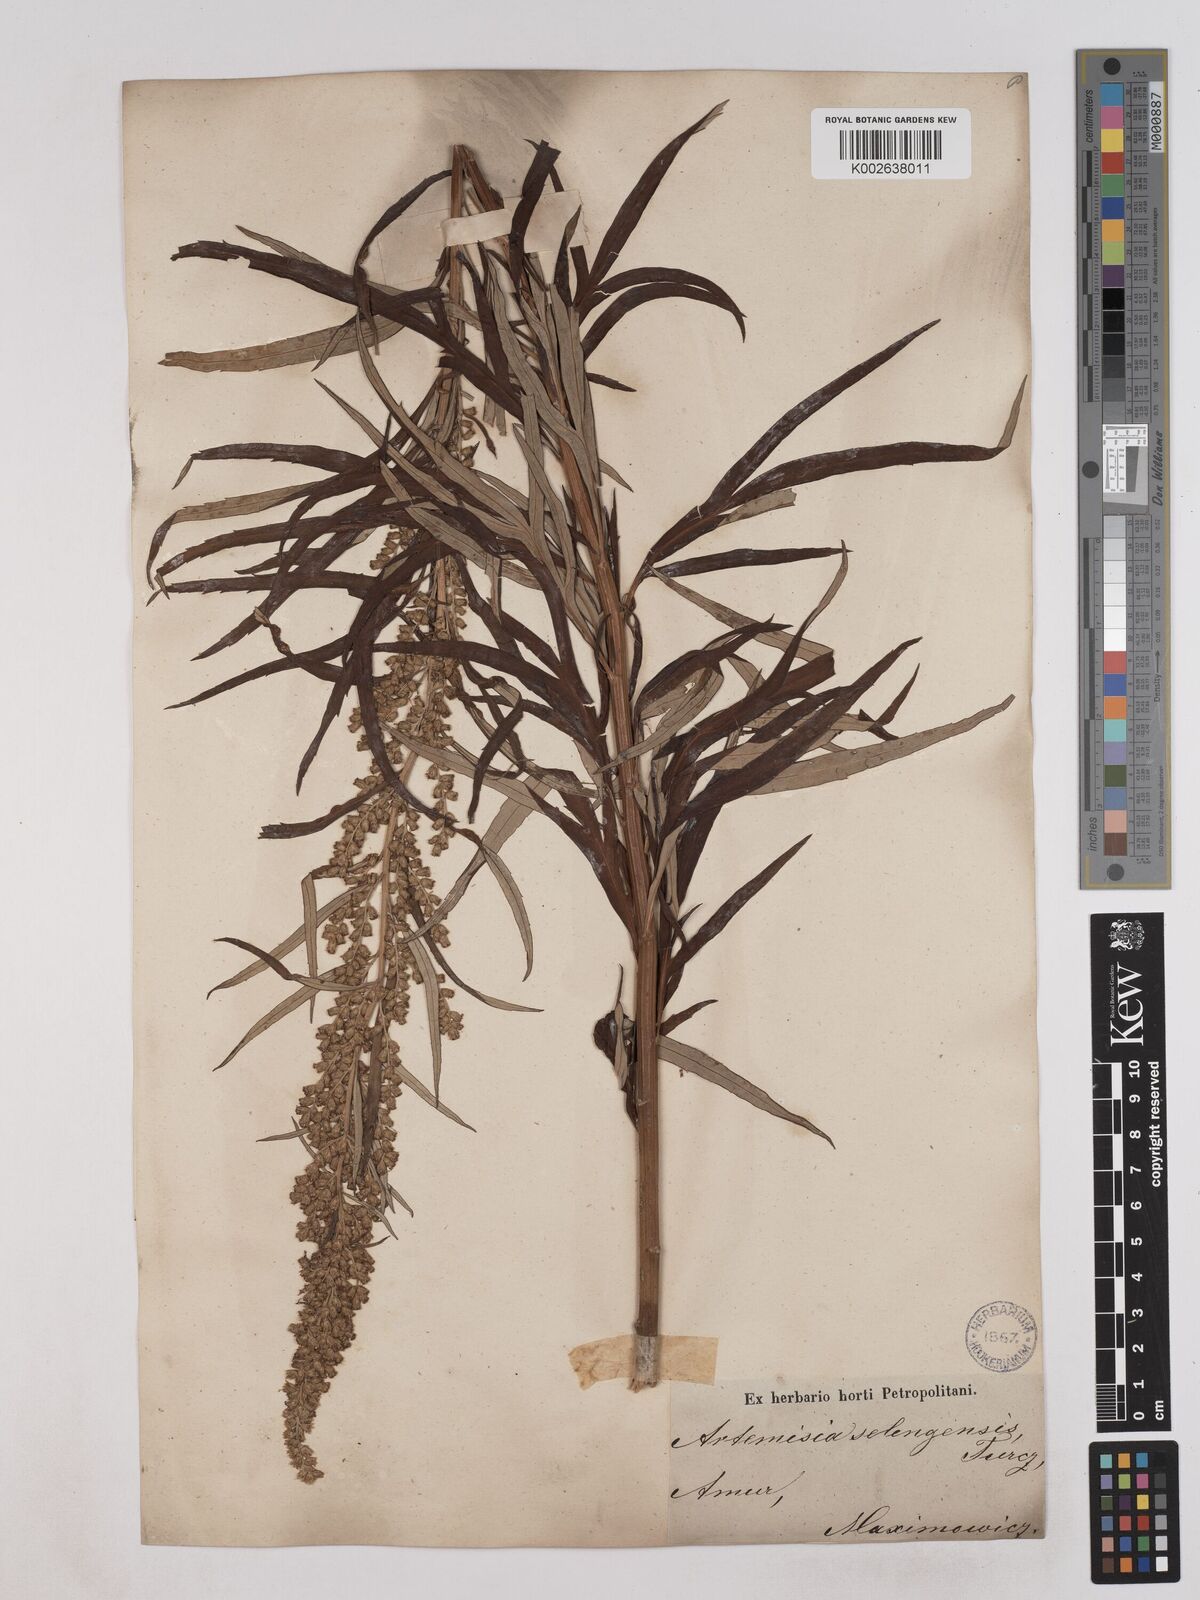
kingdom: Plantae
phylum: Tracheophyta
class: Magnoliopsida
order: Asterales
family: Asteraceae
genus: Artemisia
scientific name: Artemisia selengensis
